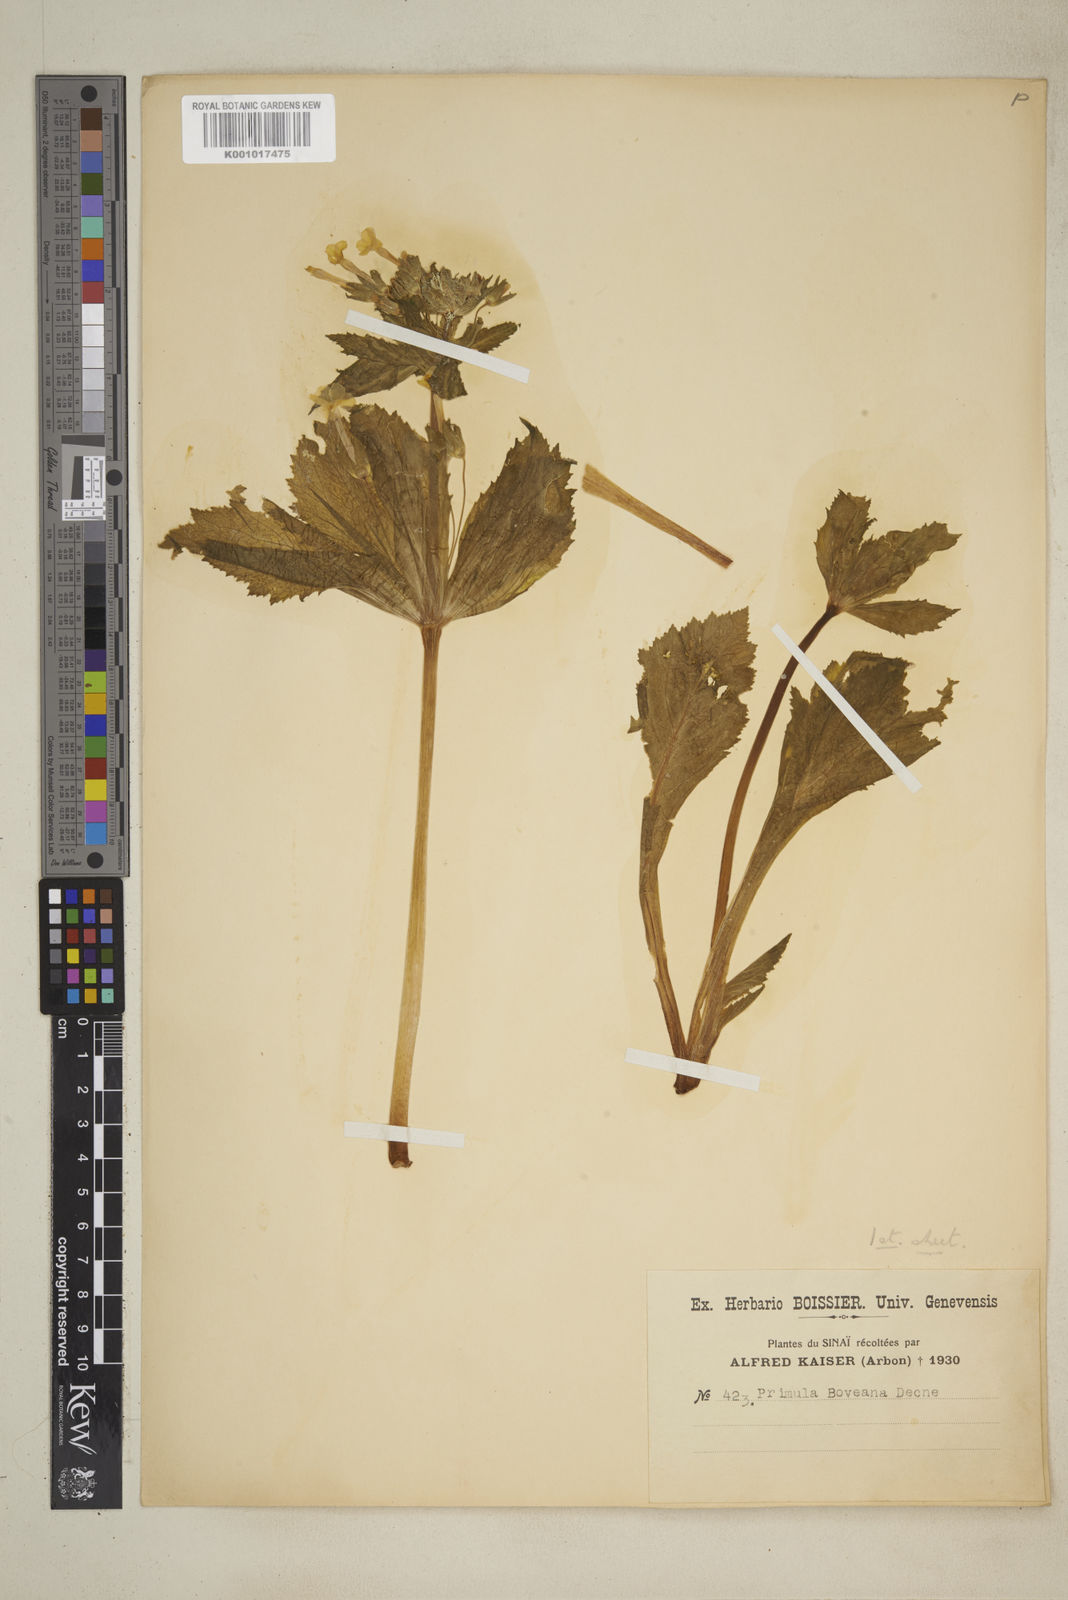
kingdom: Plantae
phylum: Tracheophyta
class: Magnoliopsida
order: Ericales
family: Primulaceae
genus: Evotrochis
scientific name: Evotrochis involucrata
